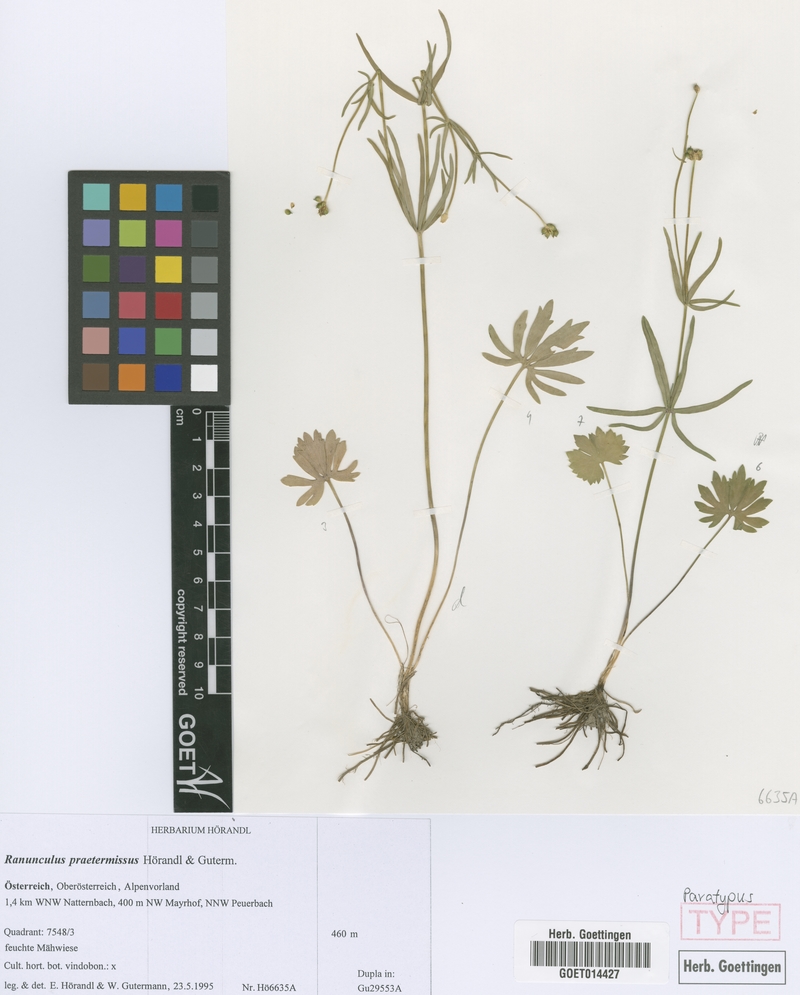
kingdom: Plantae
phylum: Tracheophyta
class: Magnoliopsida
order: Ranunculales
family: Ranunculaceae
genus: Ranunculus
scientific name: Ranunculus praetermissus
